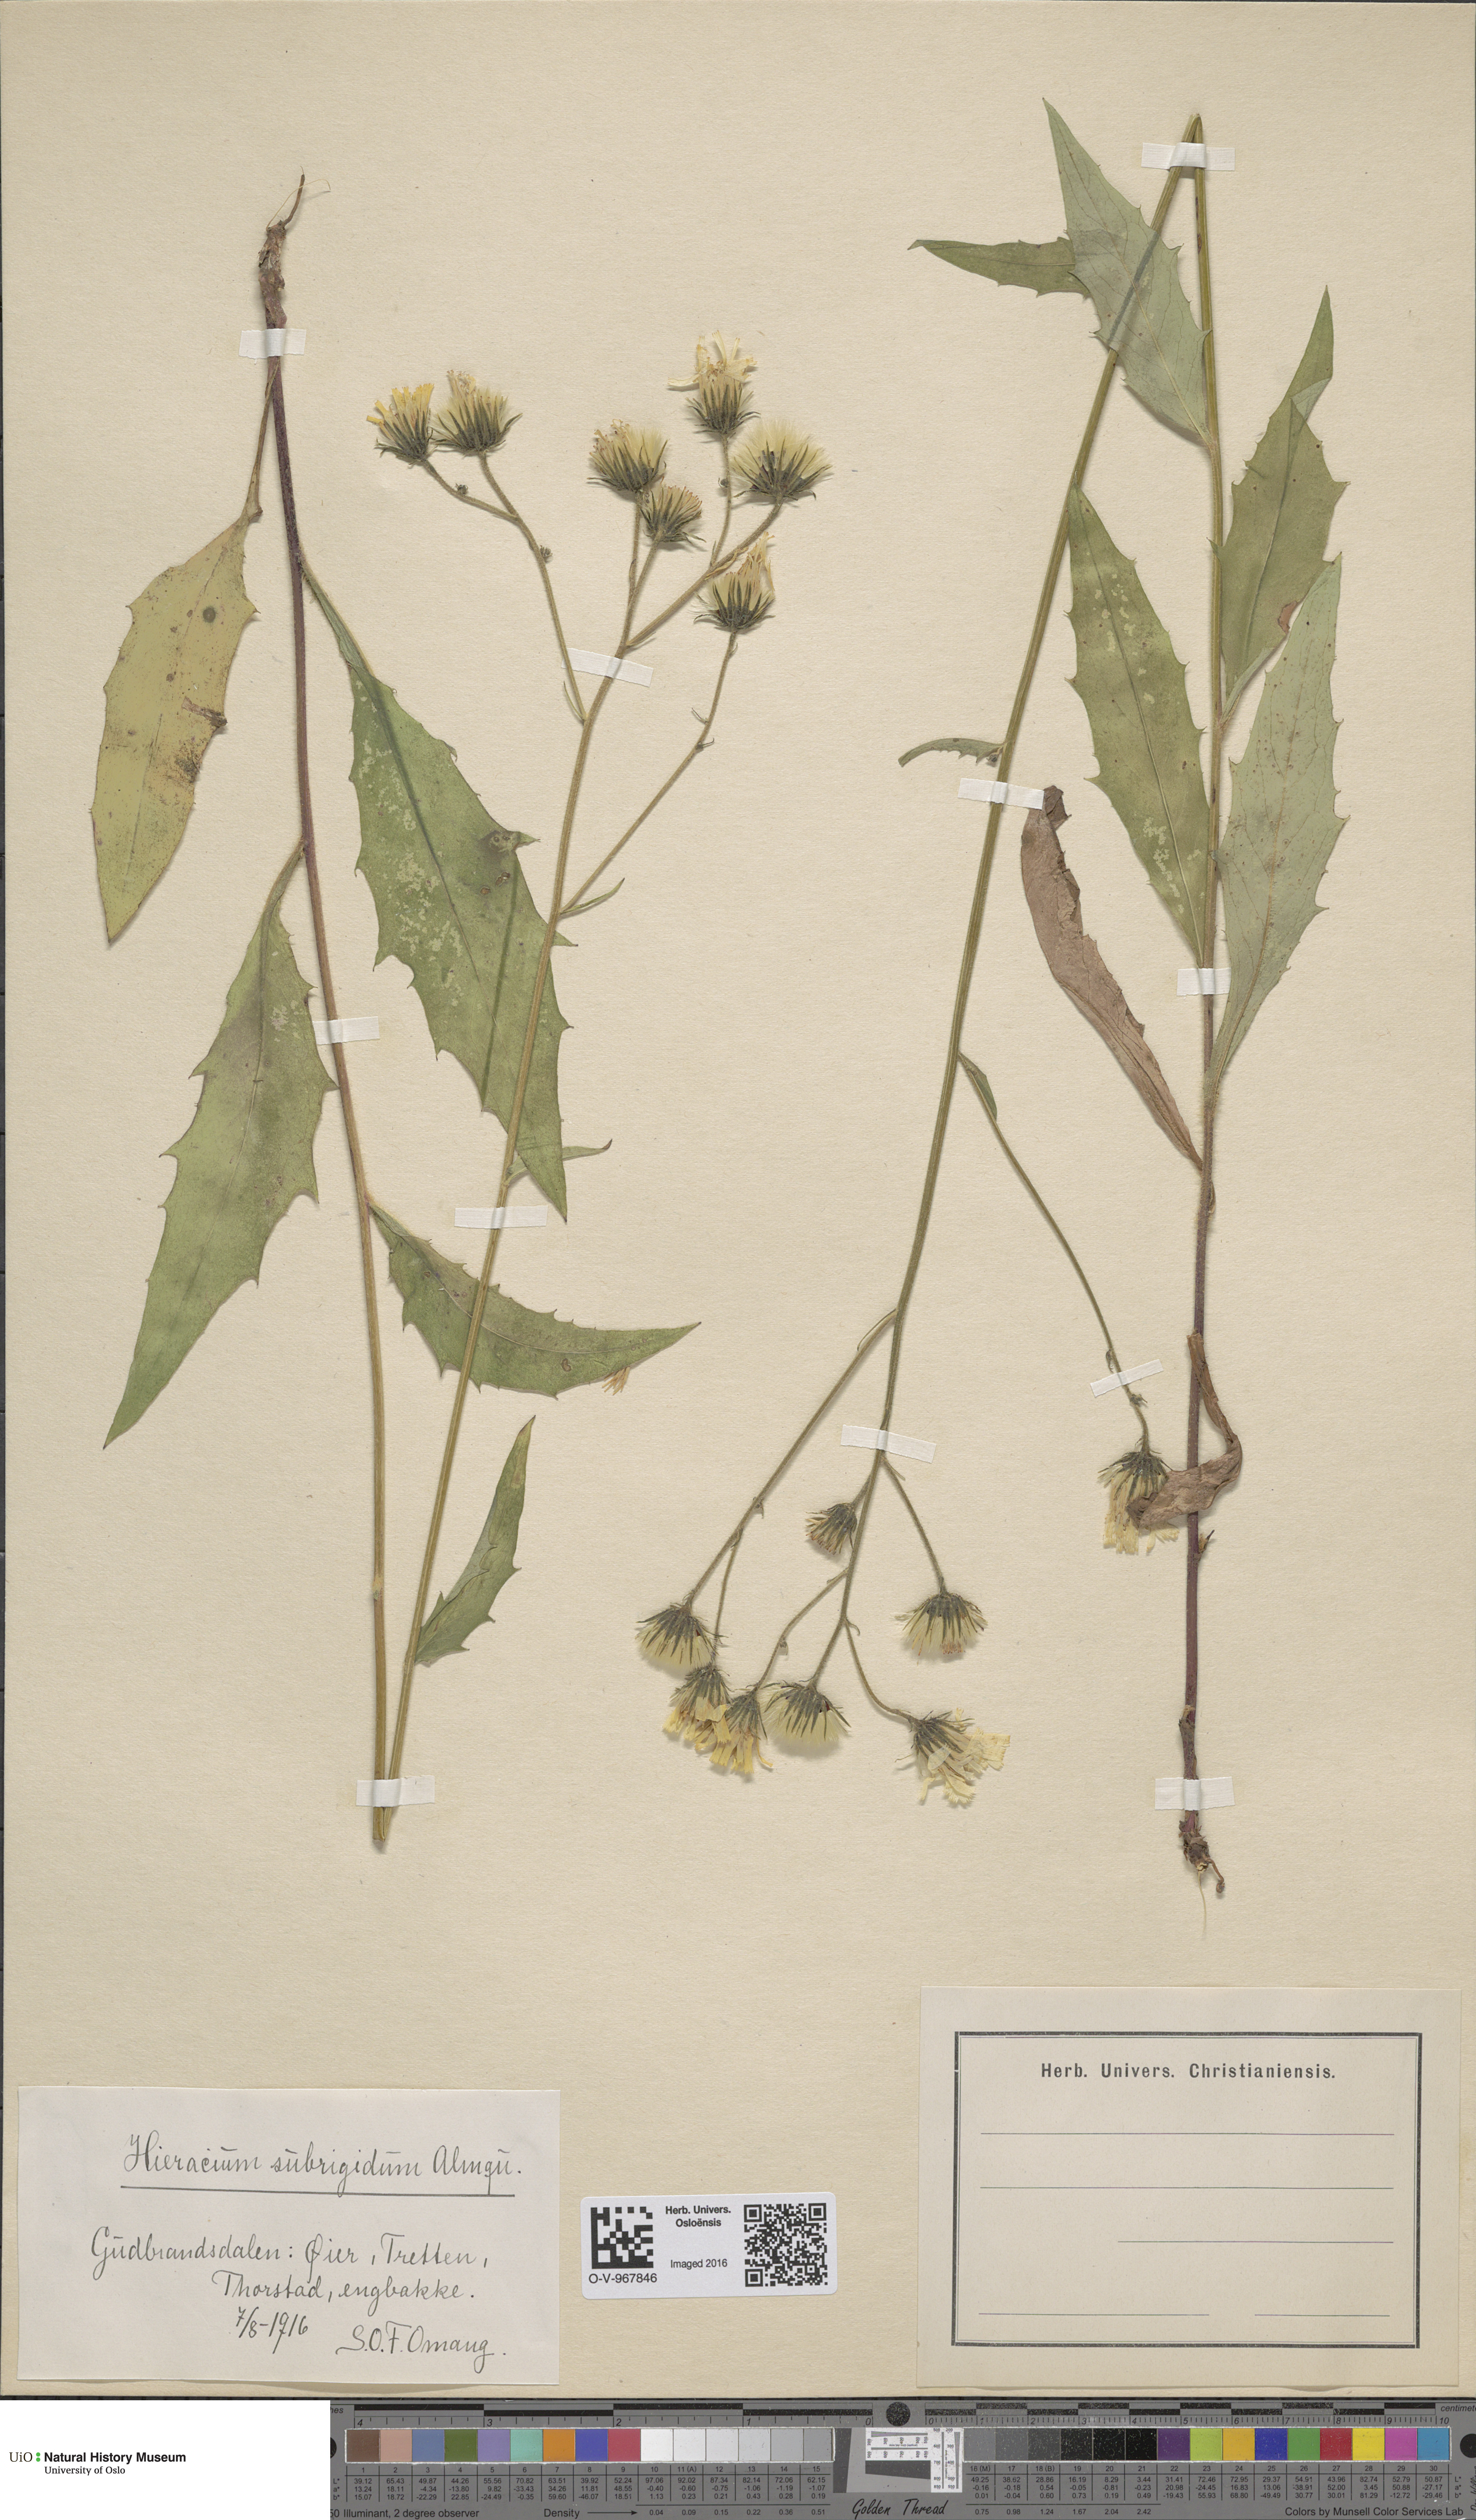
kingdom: Plantae
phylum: Tracheophyta
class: Magnoliopsida
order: Asterales
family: Asteraceae
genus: Hieracium
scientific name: Hieracium subrigidum
